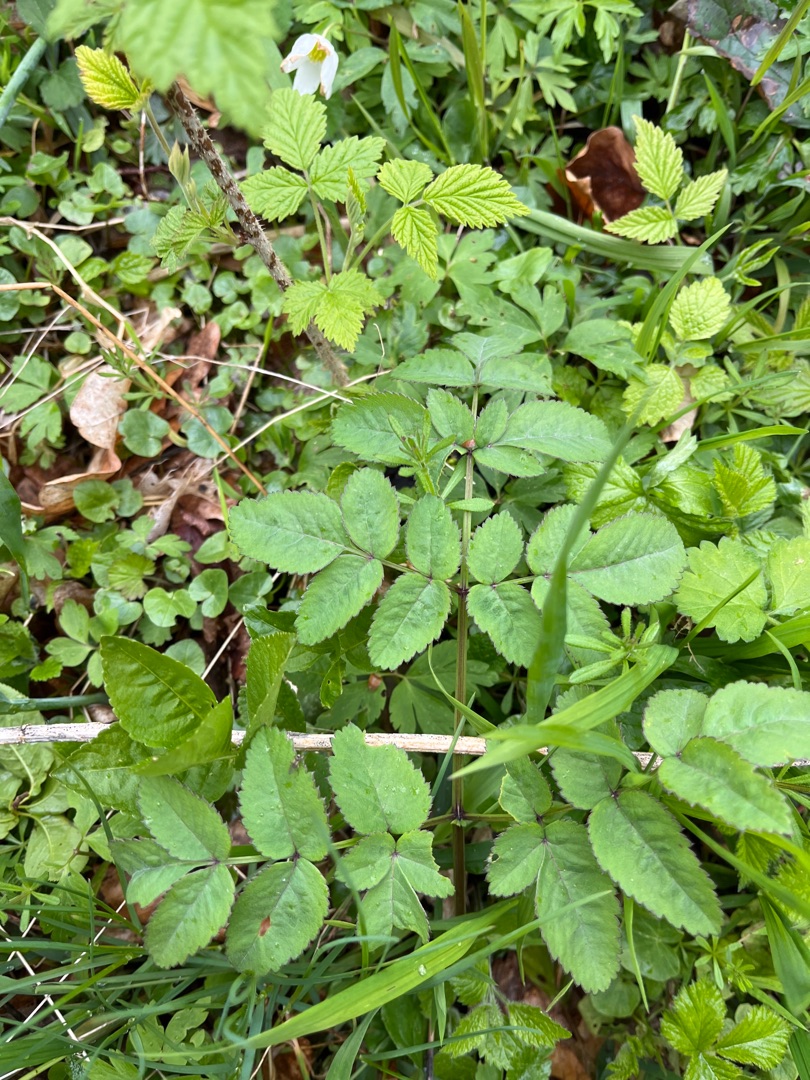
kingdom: Plantae
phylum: Tracheophyta
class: Magnoliopsida
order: Apiales
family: Apiaceae
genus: Angelica
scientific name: Angelica sylvestris
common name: Angelik
